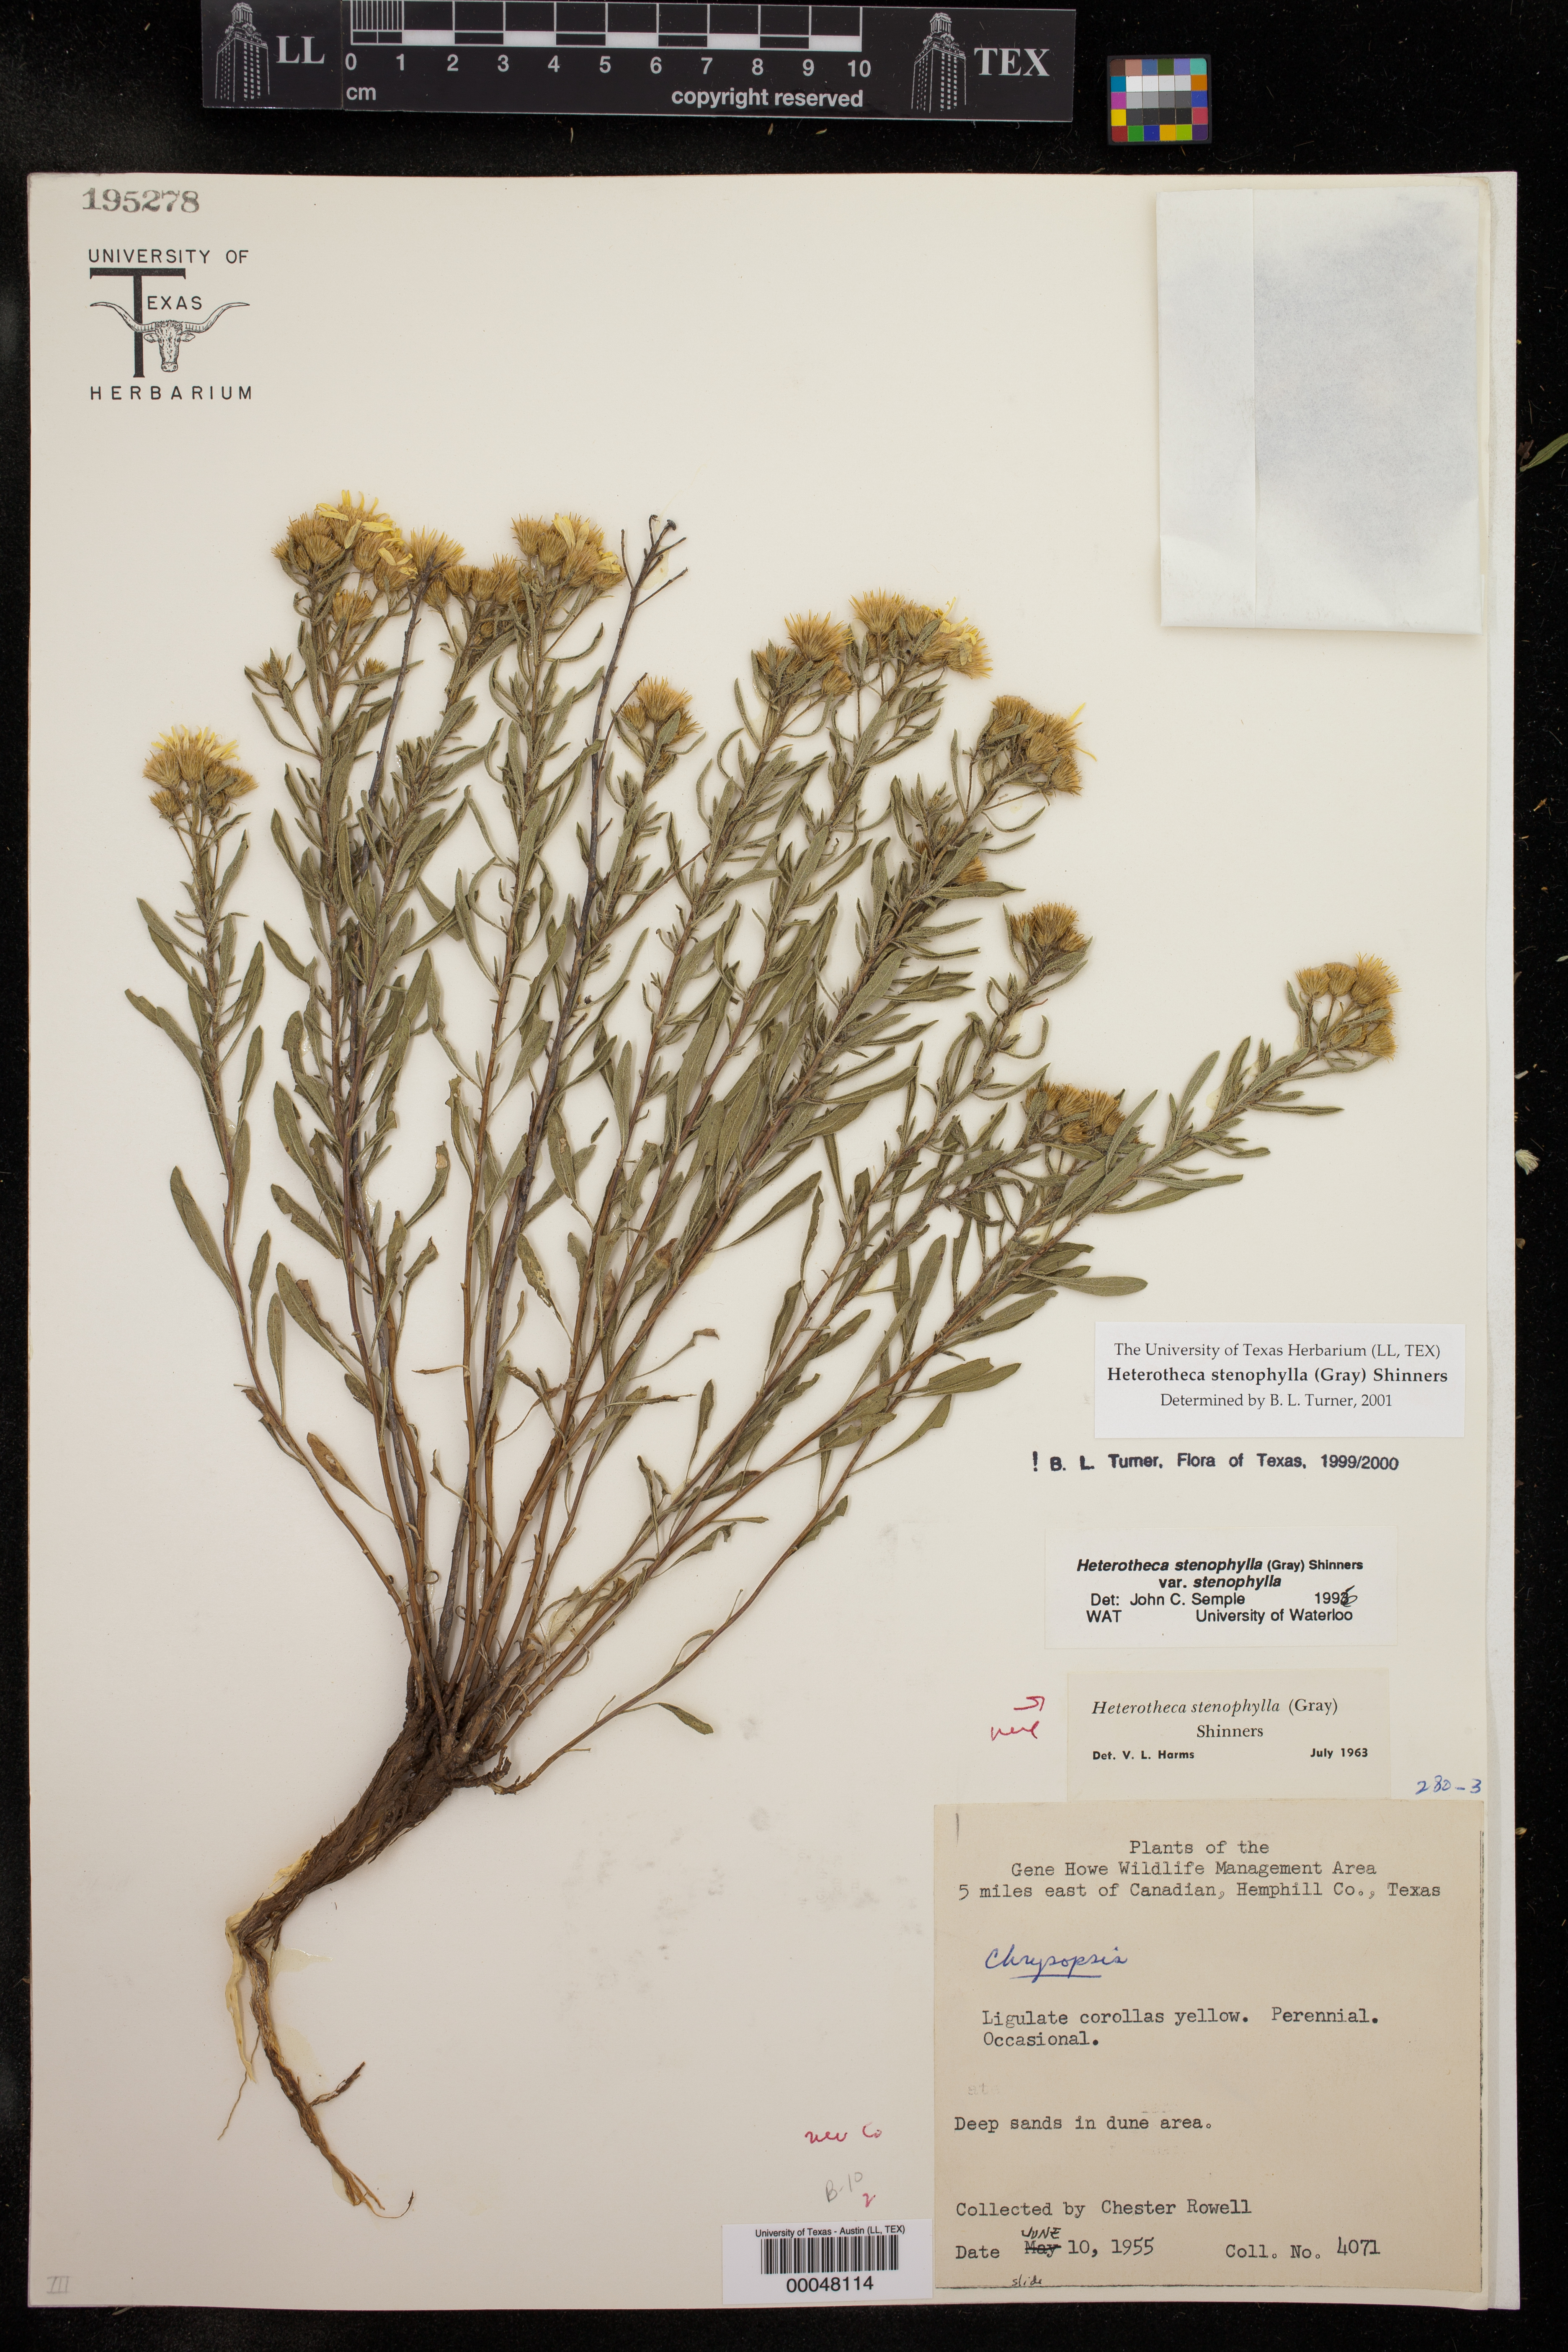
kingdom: Plantae
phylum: Tracheophyta
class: Magnoliopsida
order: Asterales
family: Asteraceae
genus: Heterotheca
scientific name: Heterotheca stenophylla
